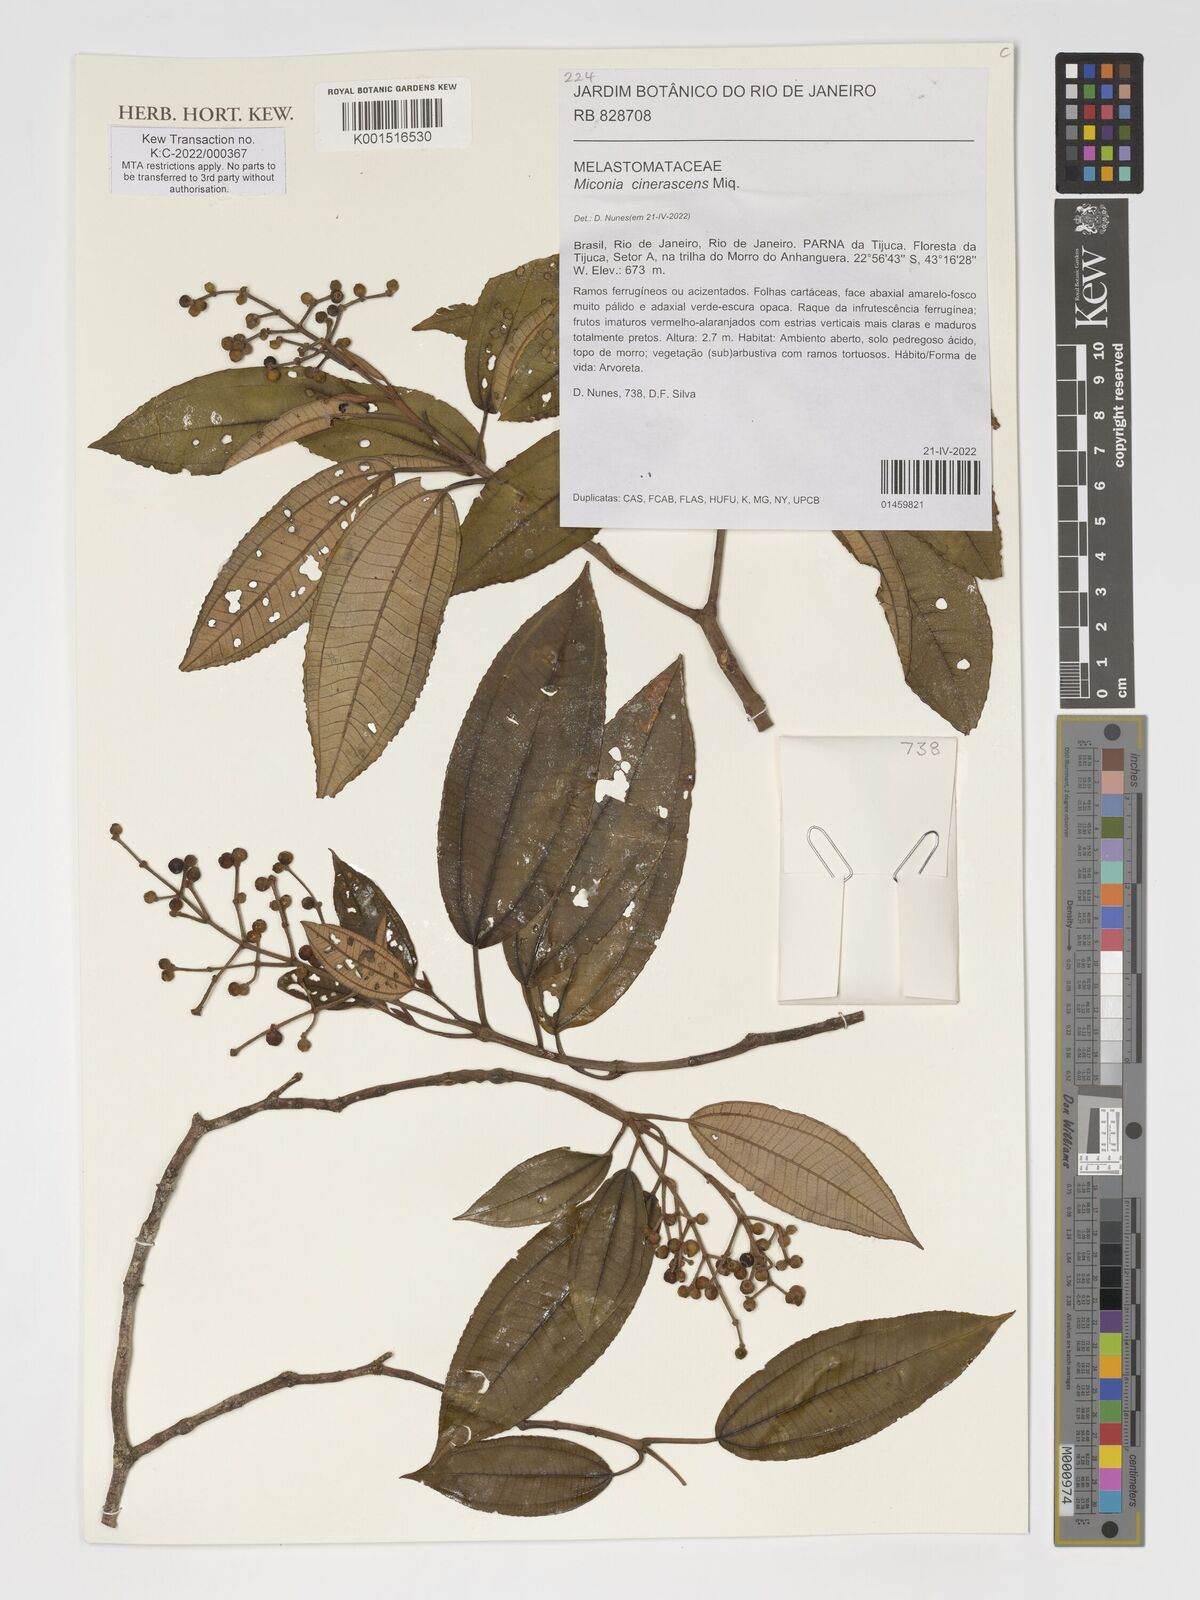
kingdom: Plantae
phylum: Tracheophyta
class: Magnoliopsida
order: Myrtales
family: Melastomataceae
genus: Miconia
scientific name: Miconia cinerascens
